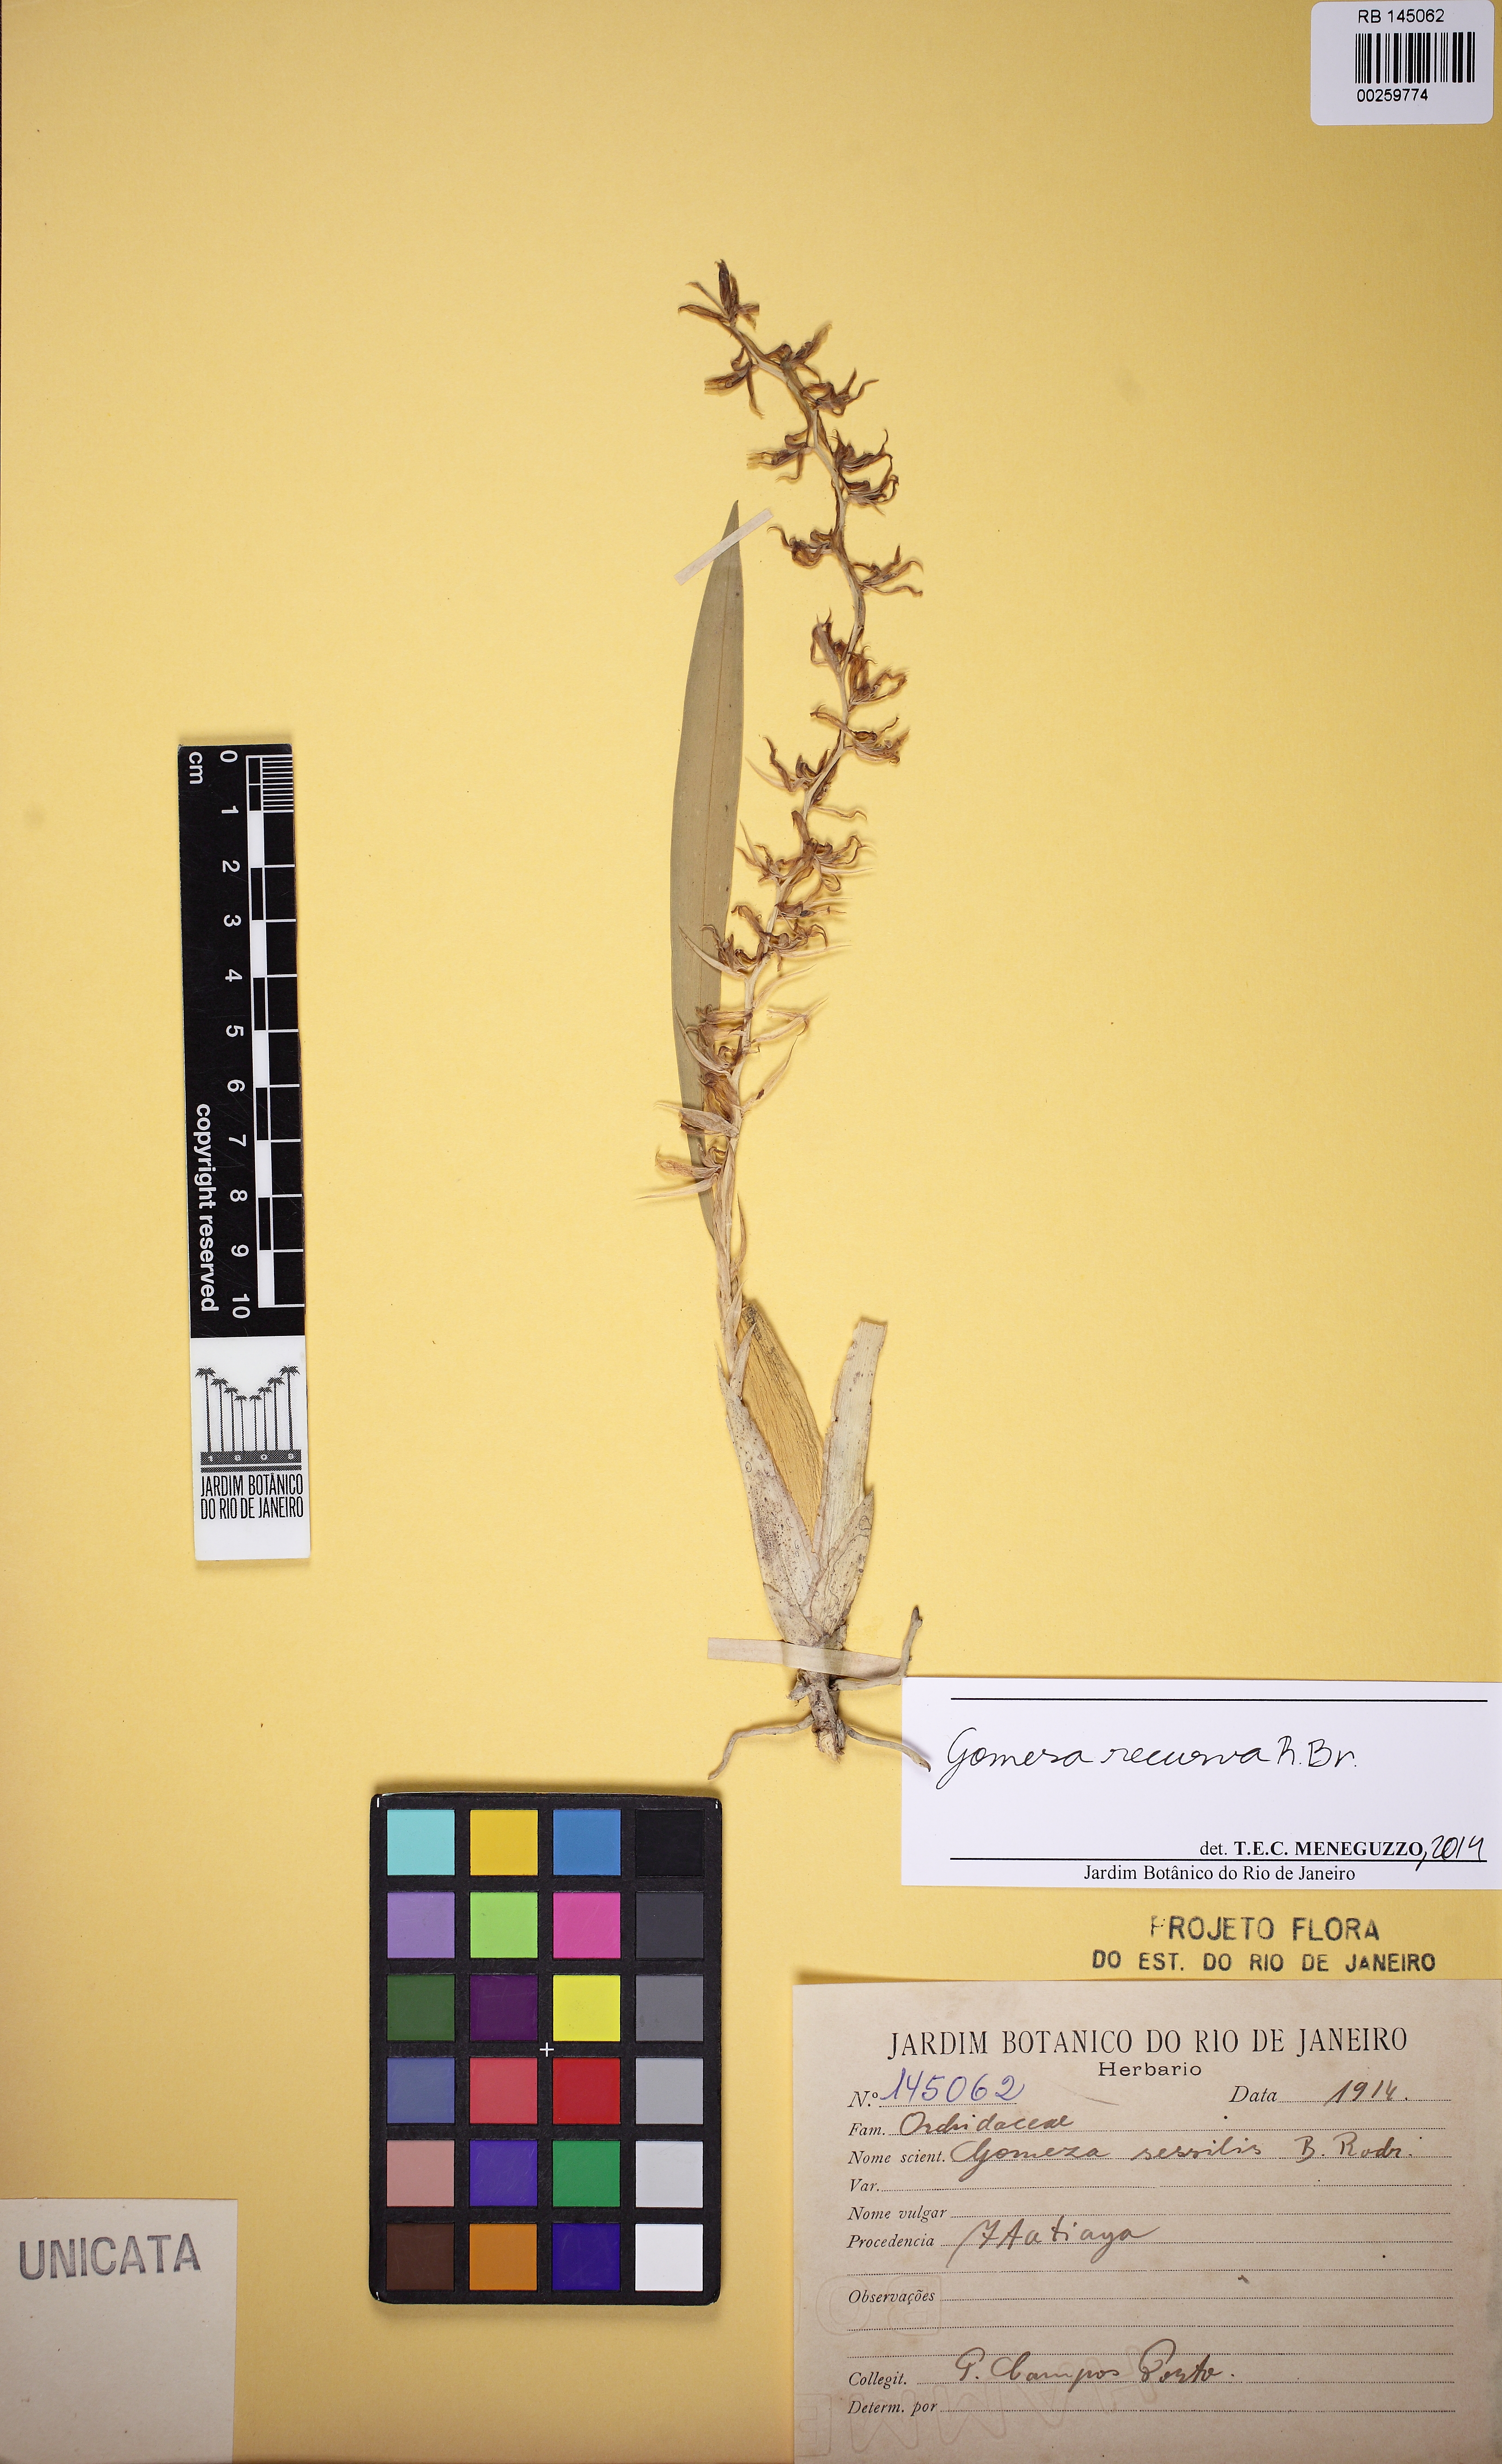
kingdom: Plantae
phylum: Tracheophyta
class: Liliopsida
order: Asparagales
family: Orchidaceae
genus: Gomesa
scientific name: Gomesa recurva
